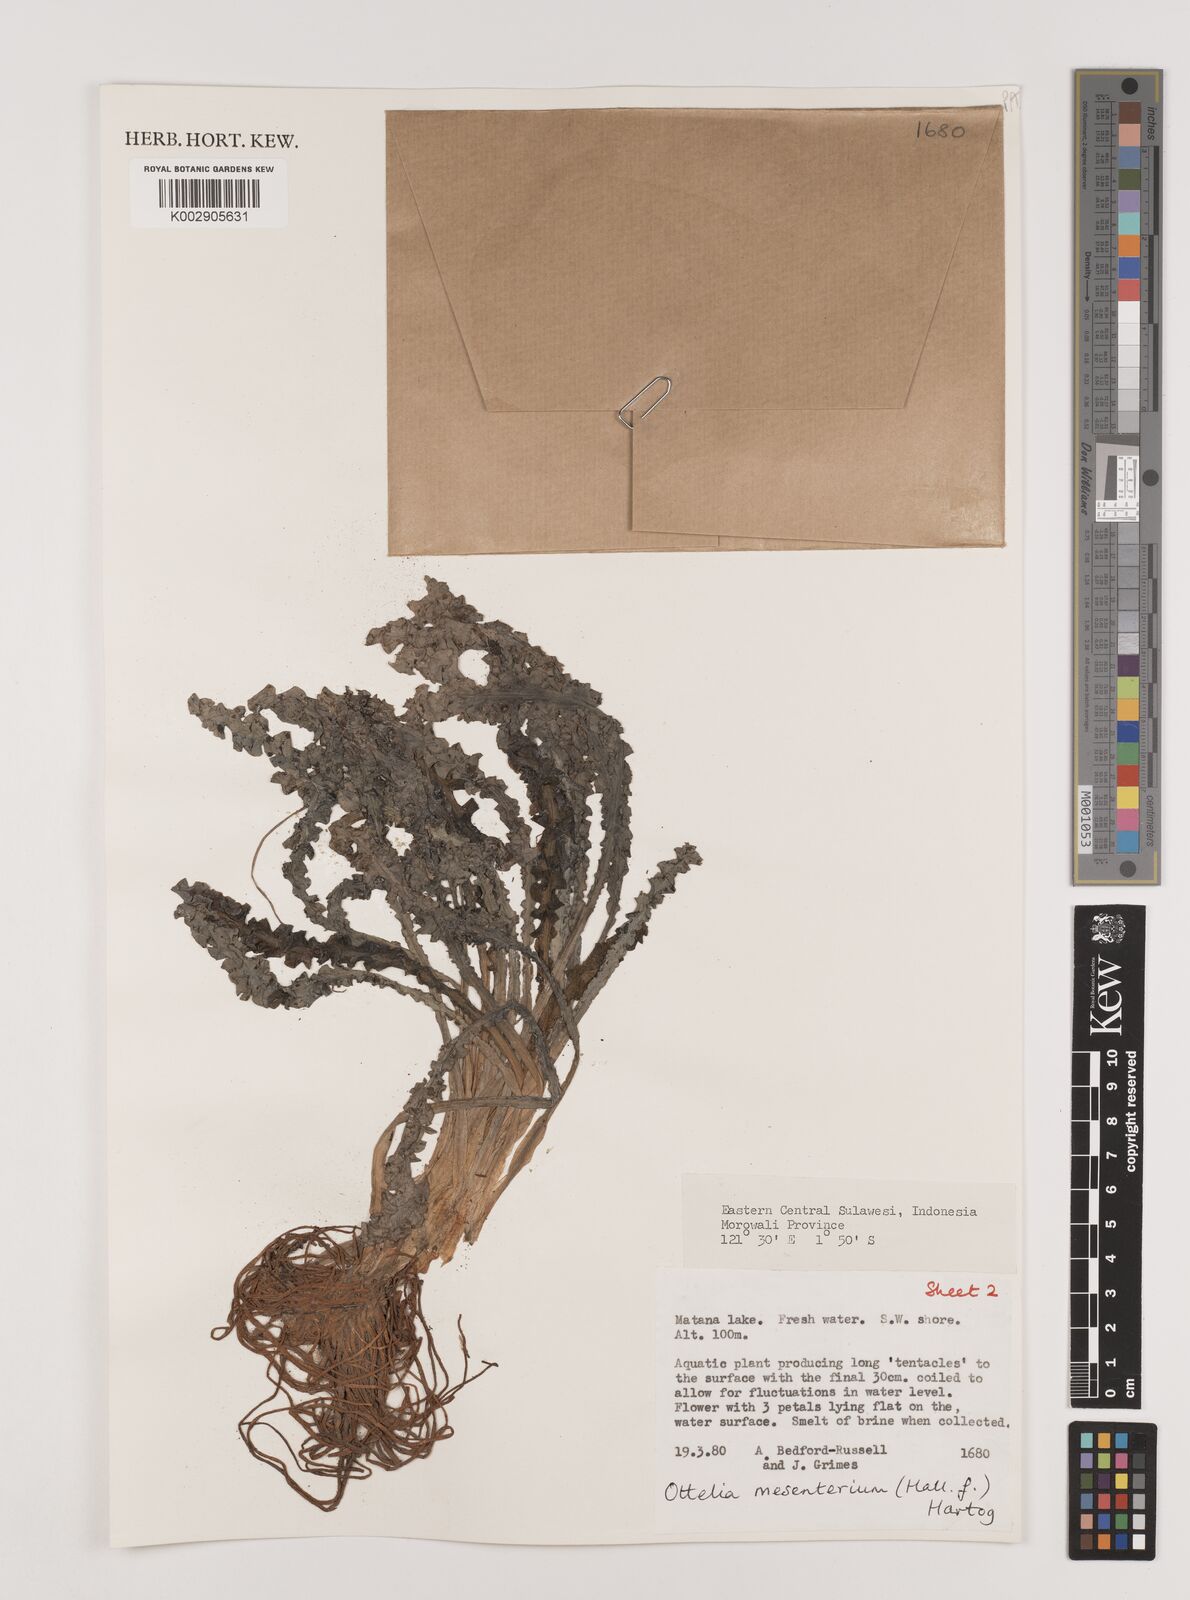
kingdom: Plantae
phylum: Tracheophyta
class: Liliopsida
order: Alismatales
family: Hydrocharitaceae
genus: Ottelia
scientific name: Ottelia mesenterium
